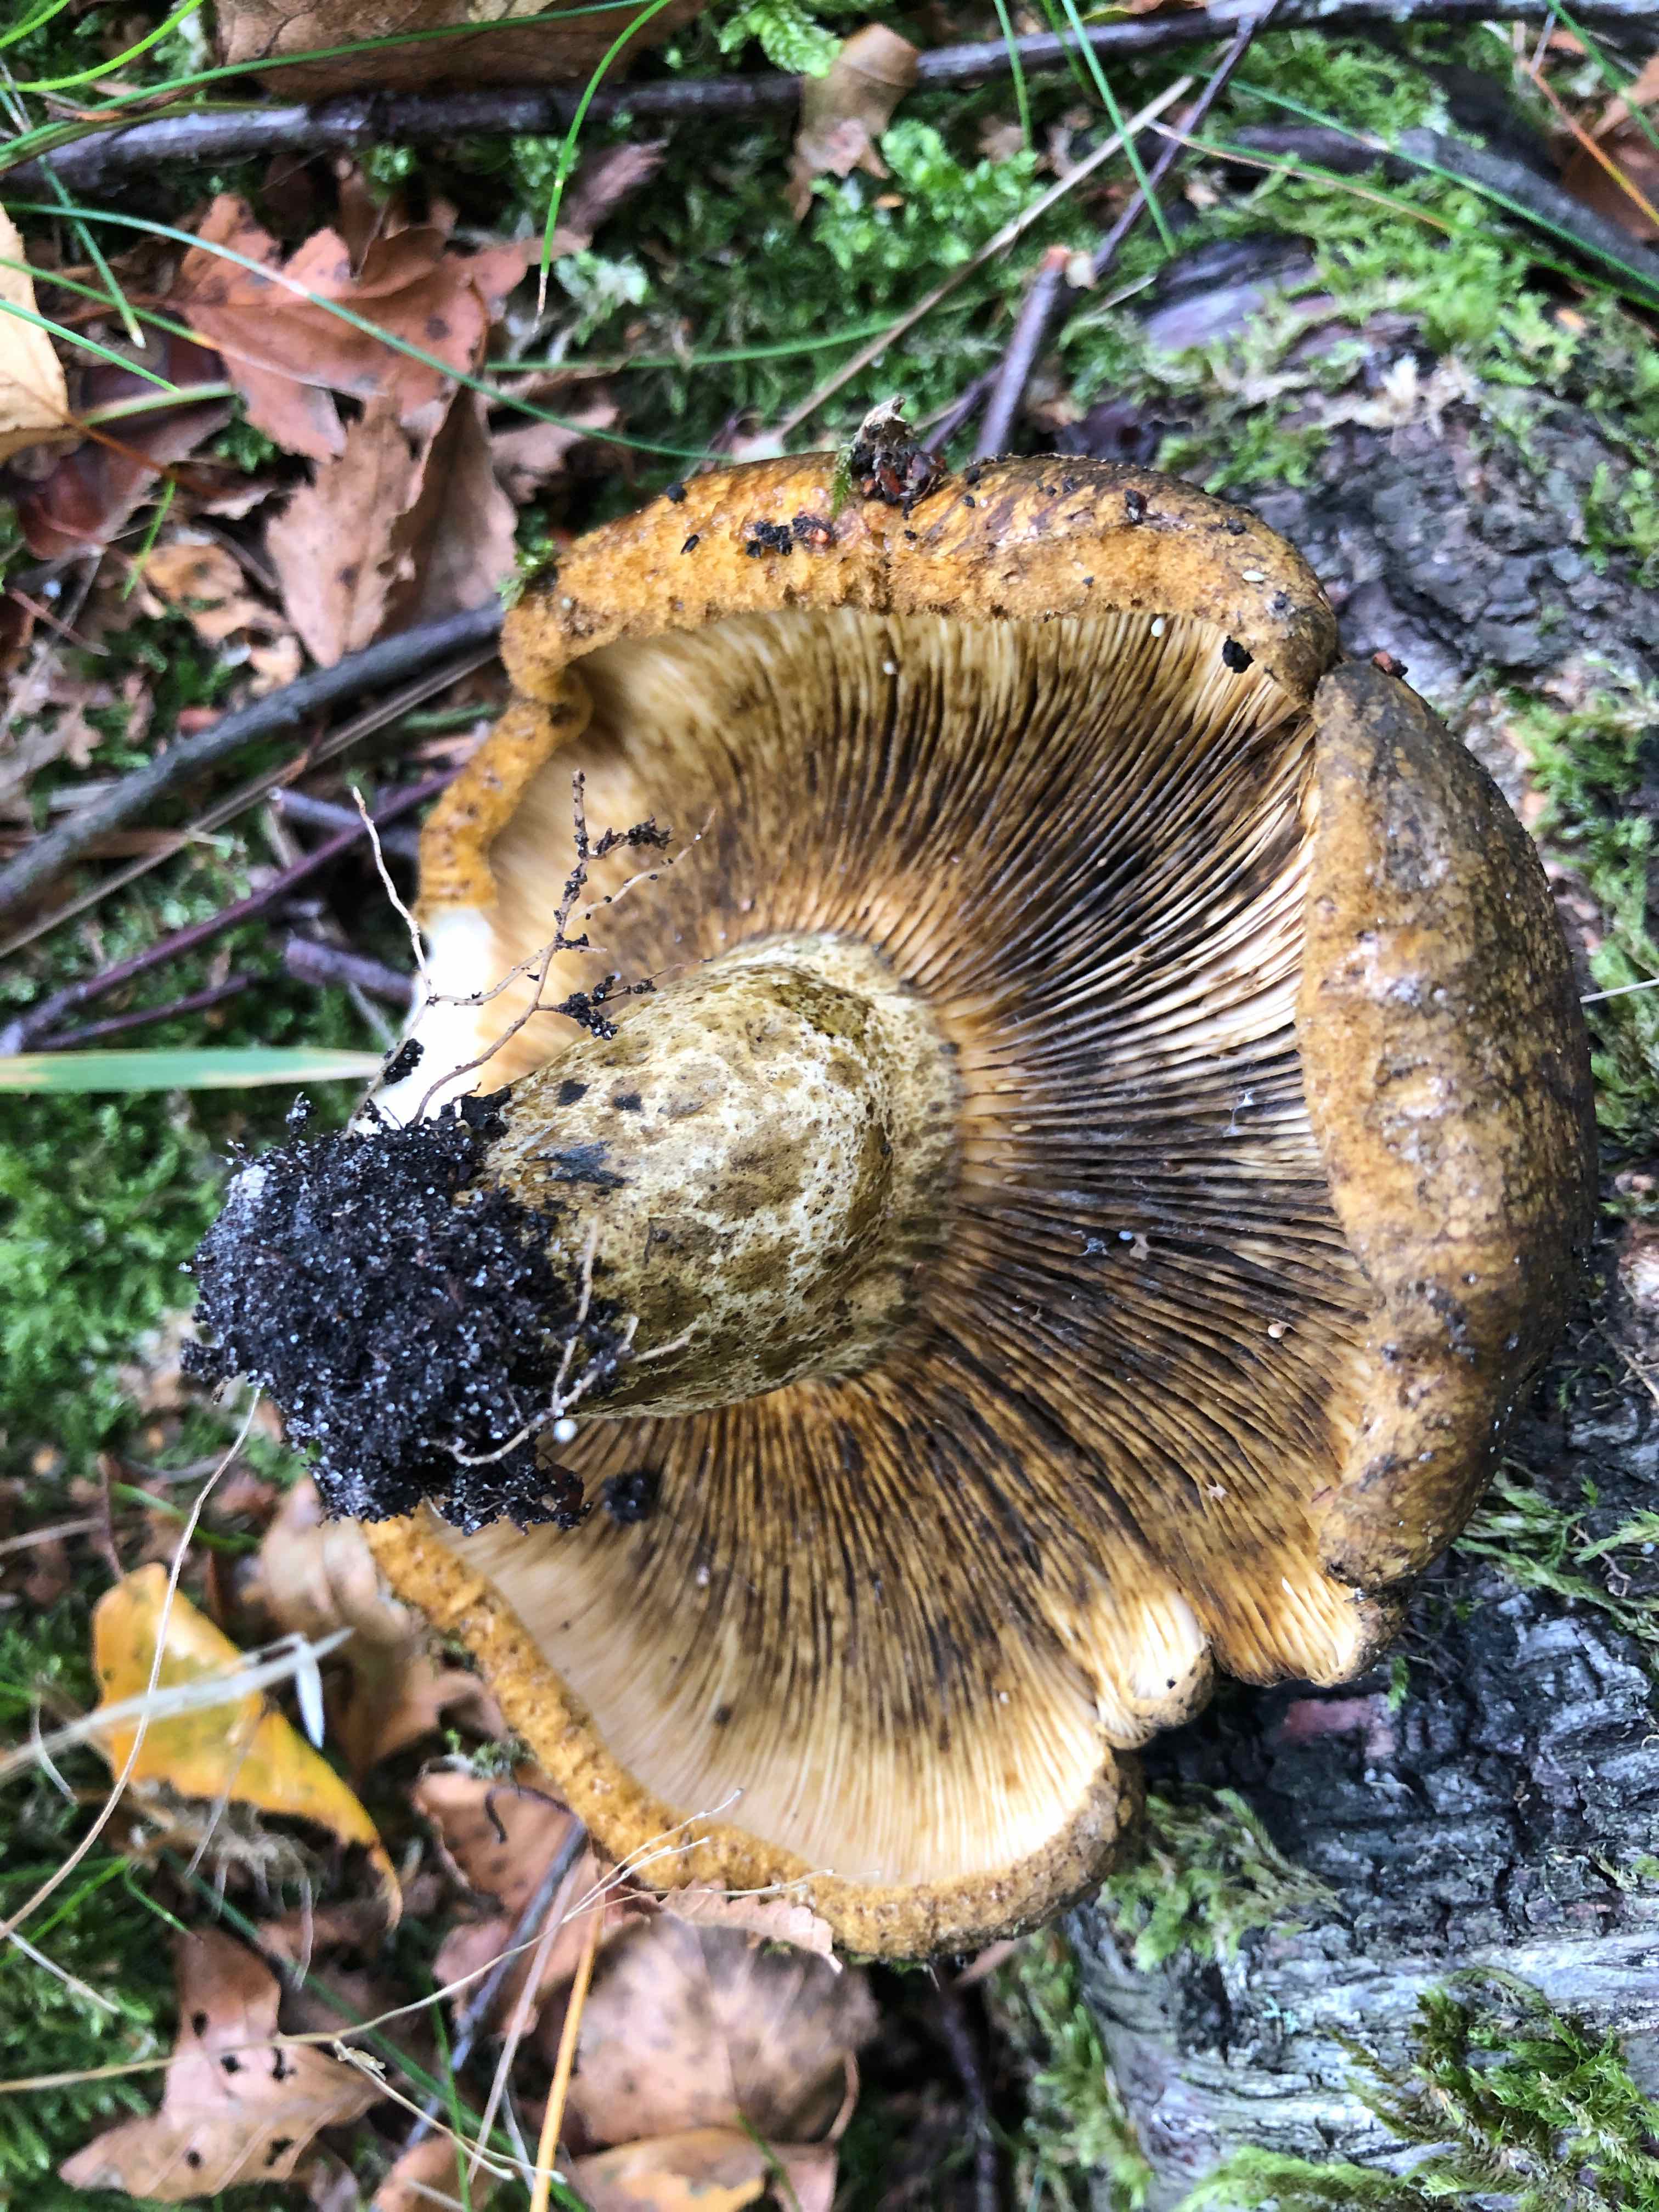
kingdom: Fungi
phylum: Basidiomycota
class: Agaricomycetes
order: Russulales
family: Russulaceae
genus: Lactarius
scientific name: Lactarius necator
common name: manddraber-mælkehat
